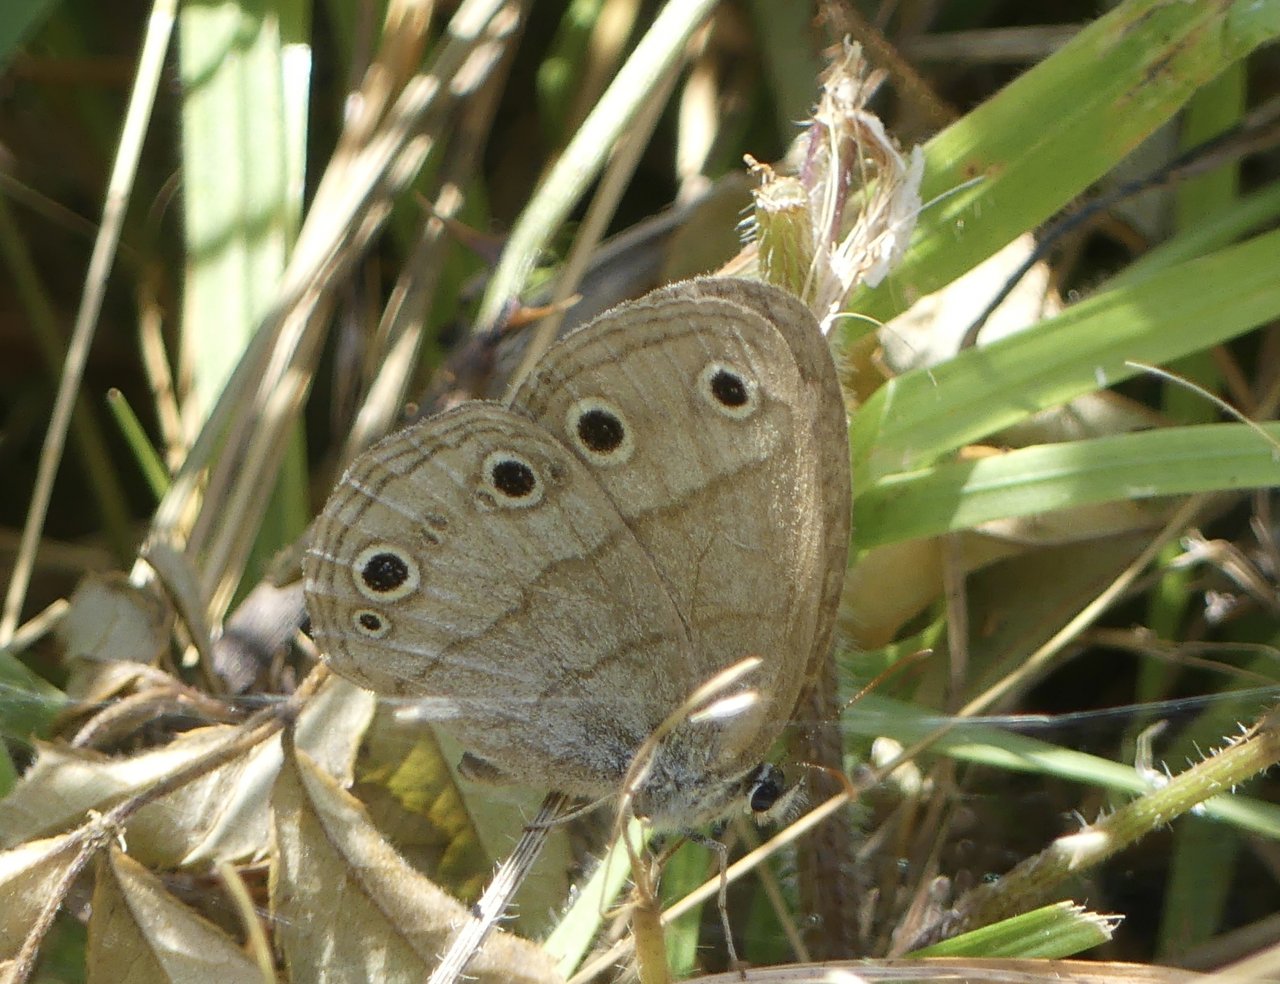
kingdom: Animalia
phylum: Arthropoda
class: Insecta
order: Lepidoptera
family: Nymphalidae
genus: Euptychia
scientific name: Euptychia cymela
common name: Little Wood Satyr
